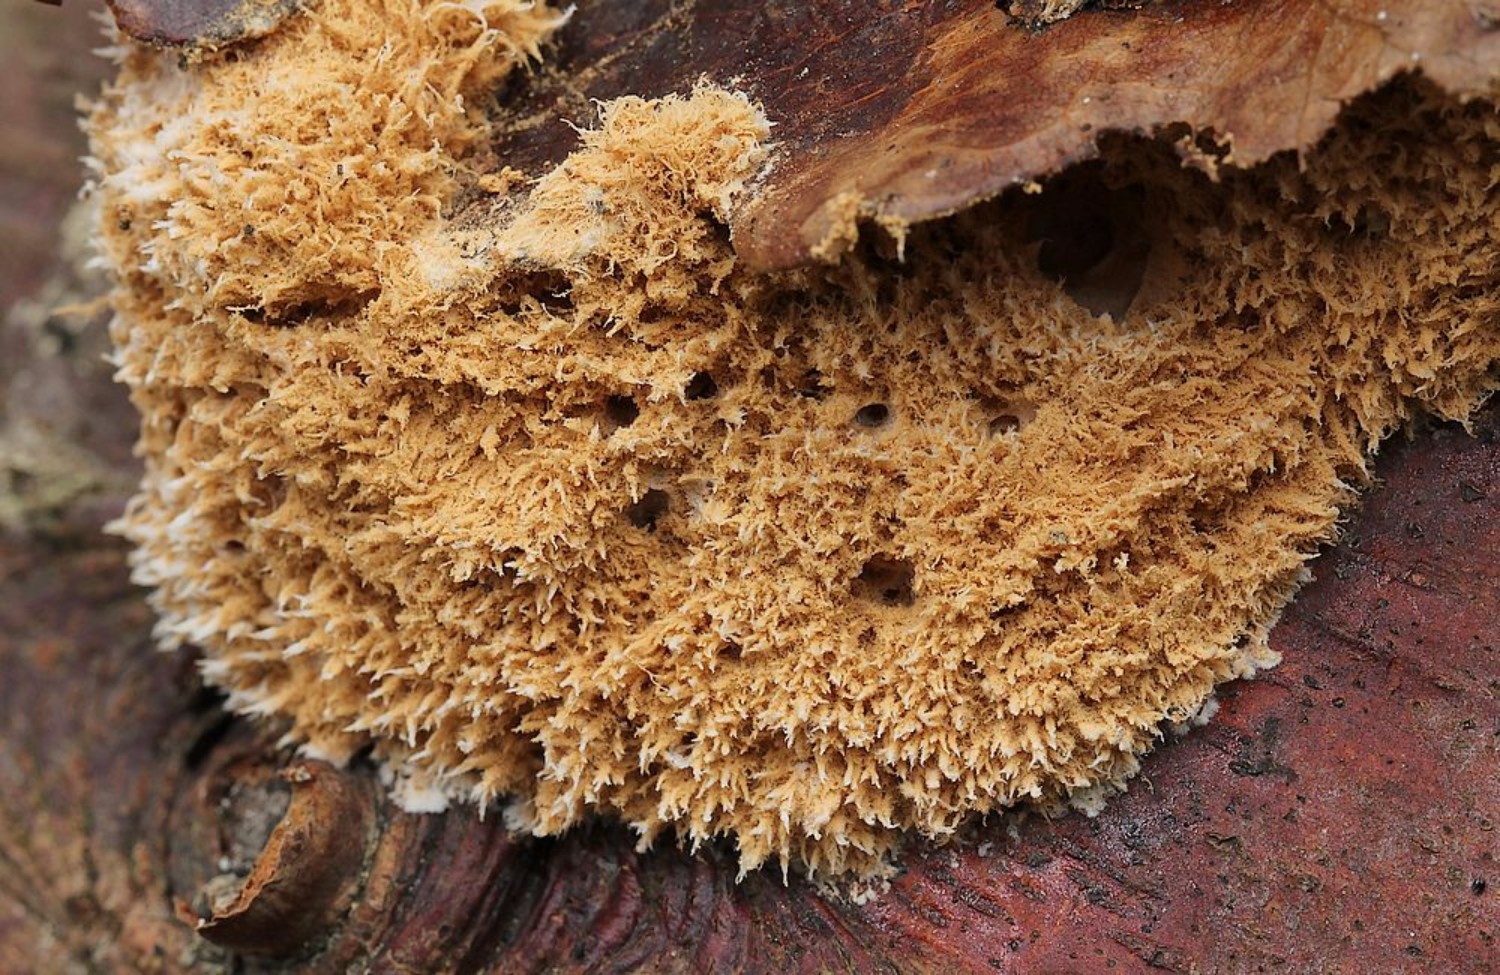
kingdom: Fungi
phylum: Basidiomycota
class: Agaricomycetes
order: Polyporales
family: Dacryobolaceae
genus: Postia
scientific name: Postia ptychogaster
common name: støvende kødporesvamp
